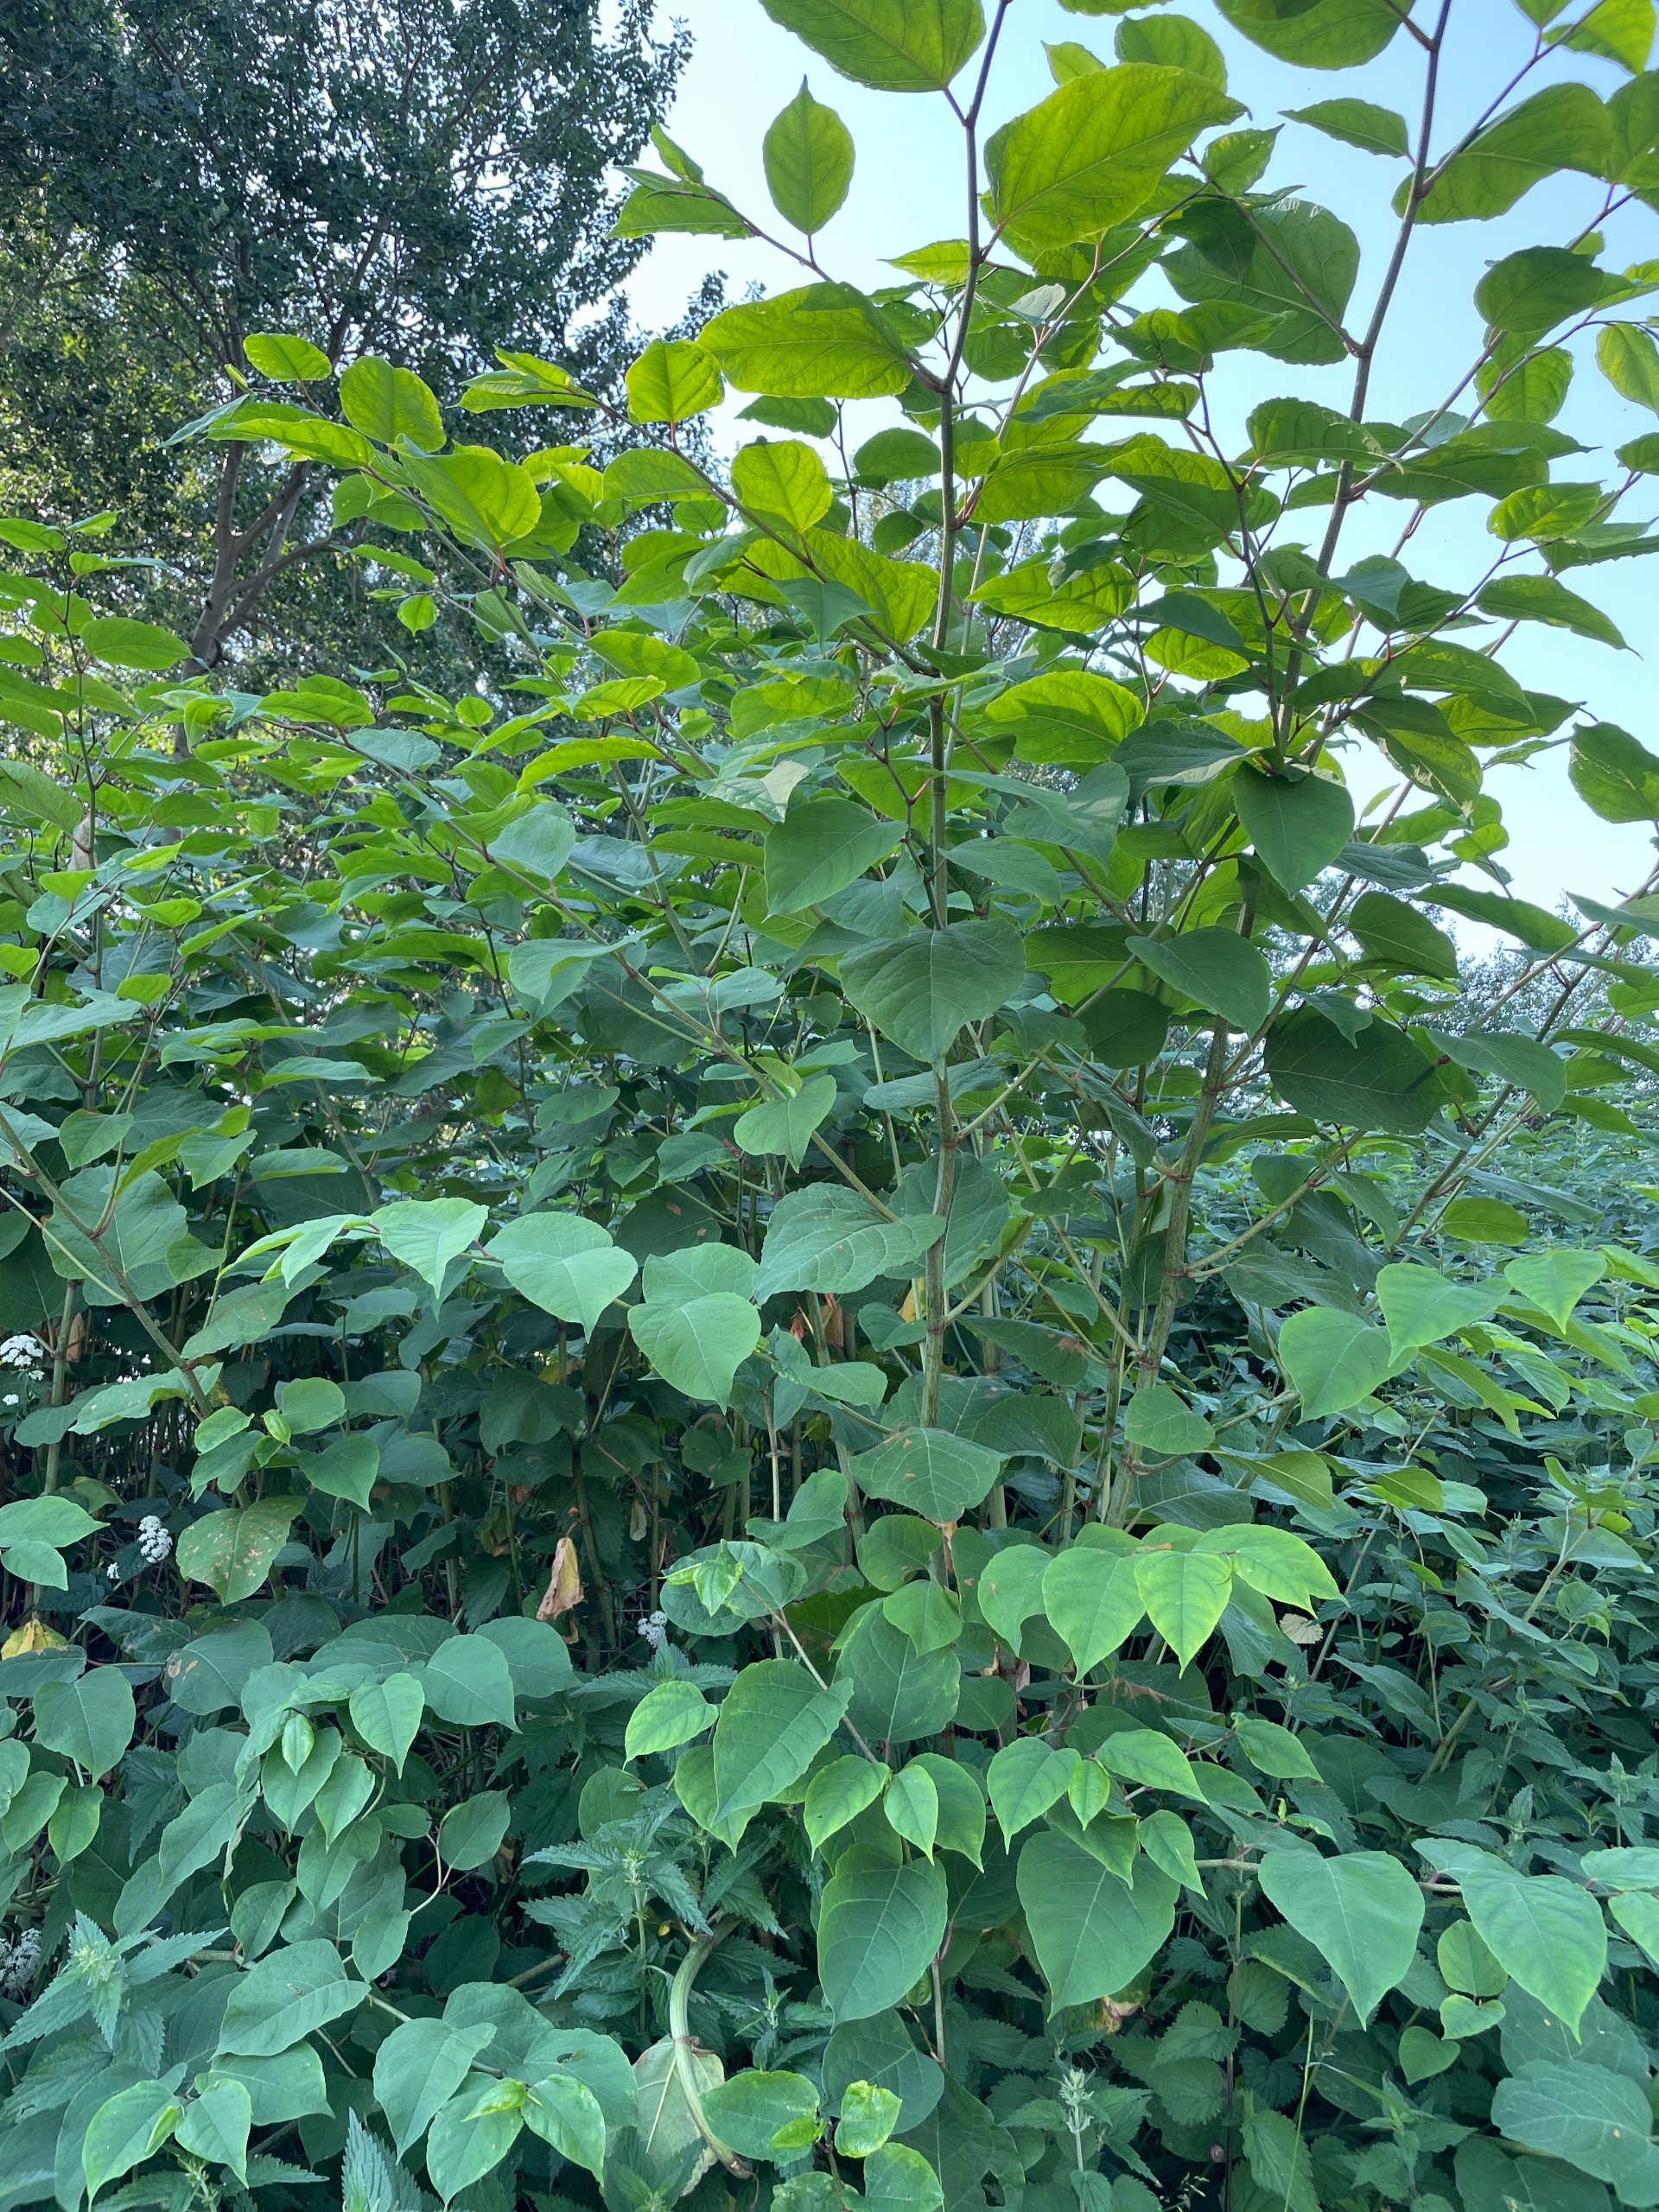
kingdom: Plantae
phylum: Tracheophyta
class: Magnoliopsida
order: Caryophyllales
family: Polygonaceae
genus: Reynoutria
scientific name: Reynoutria japonica
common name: Japan-pileurt
